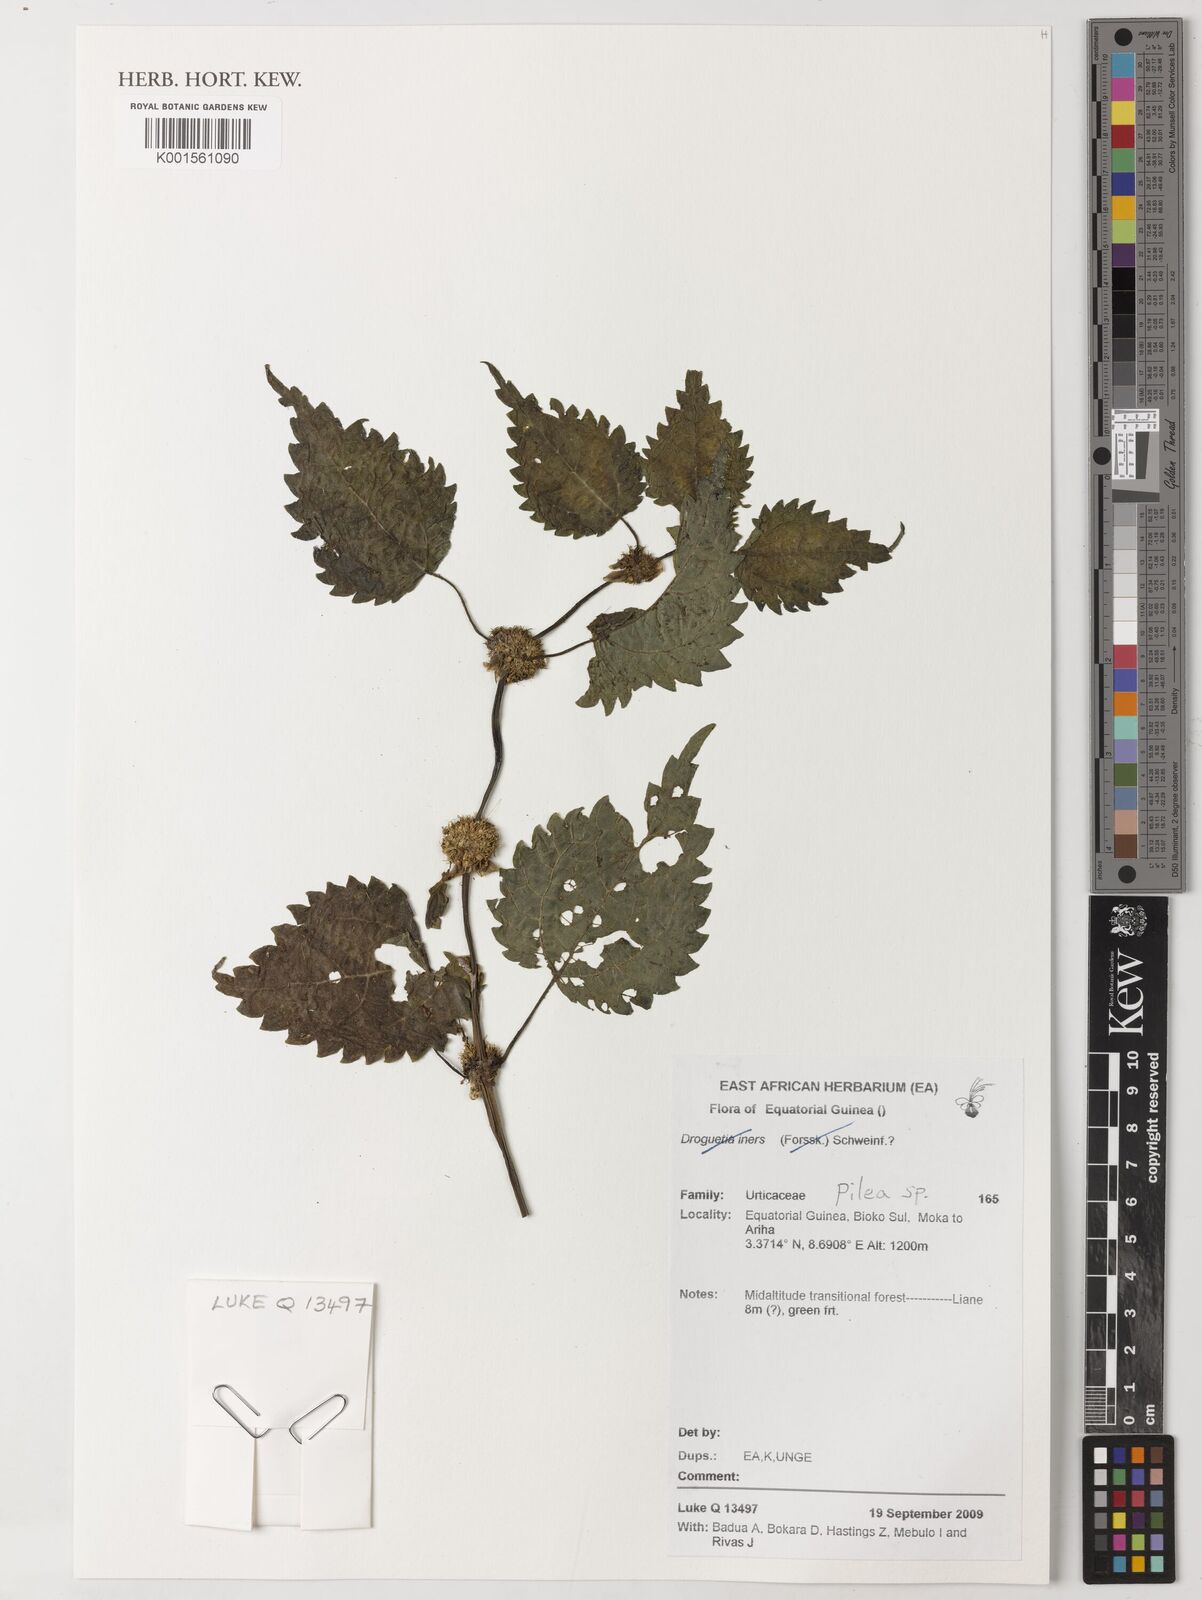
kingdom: Plantae
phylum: Tracheophyta
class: Magnoliopsida
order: Rosales
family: Urticaceae
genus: Pilea
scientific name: Pilea
